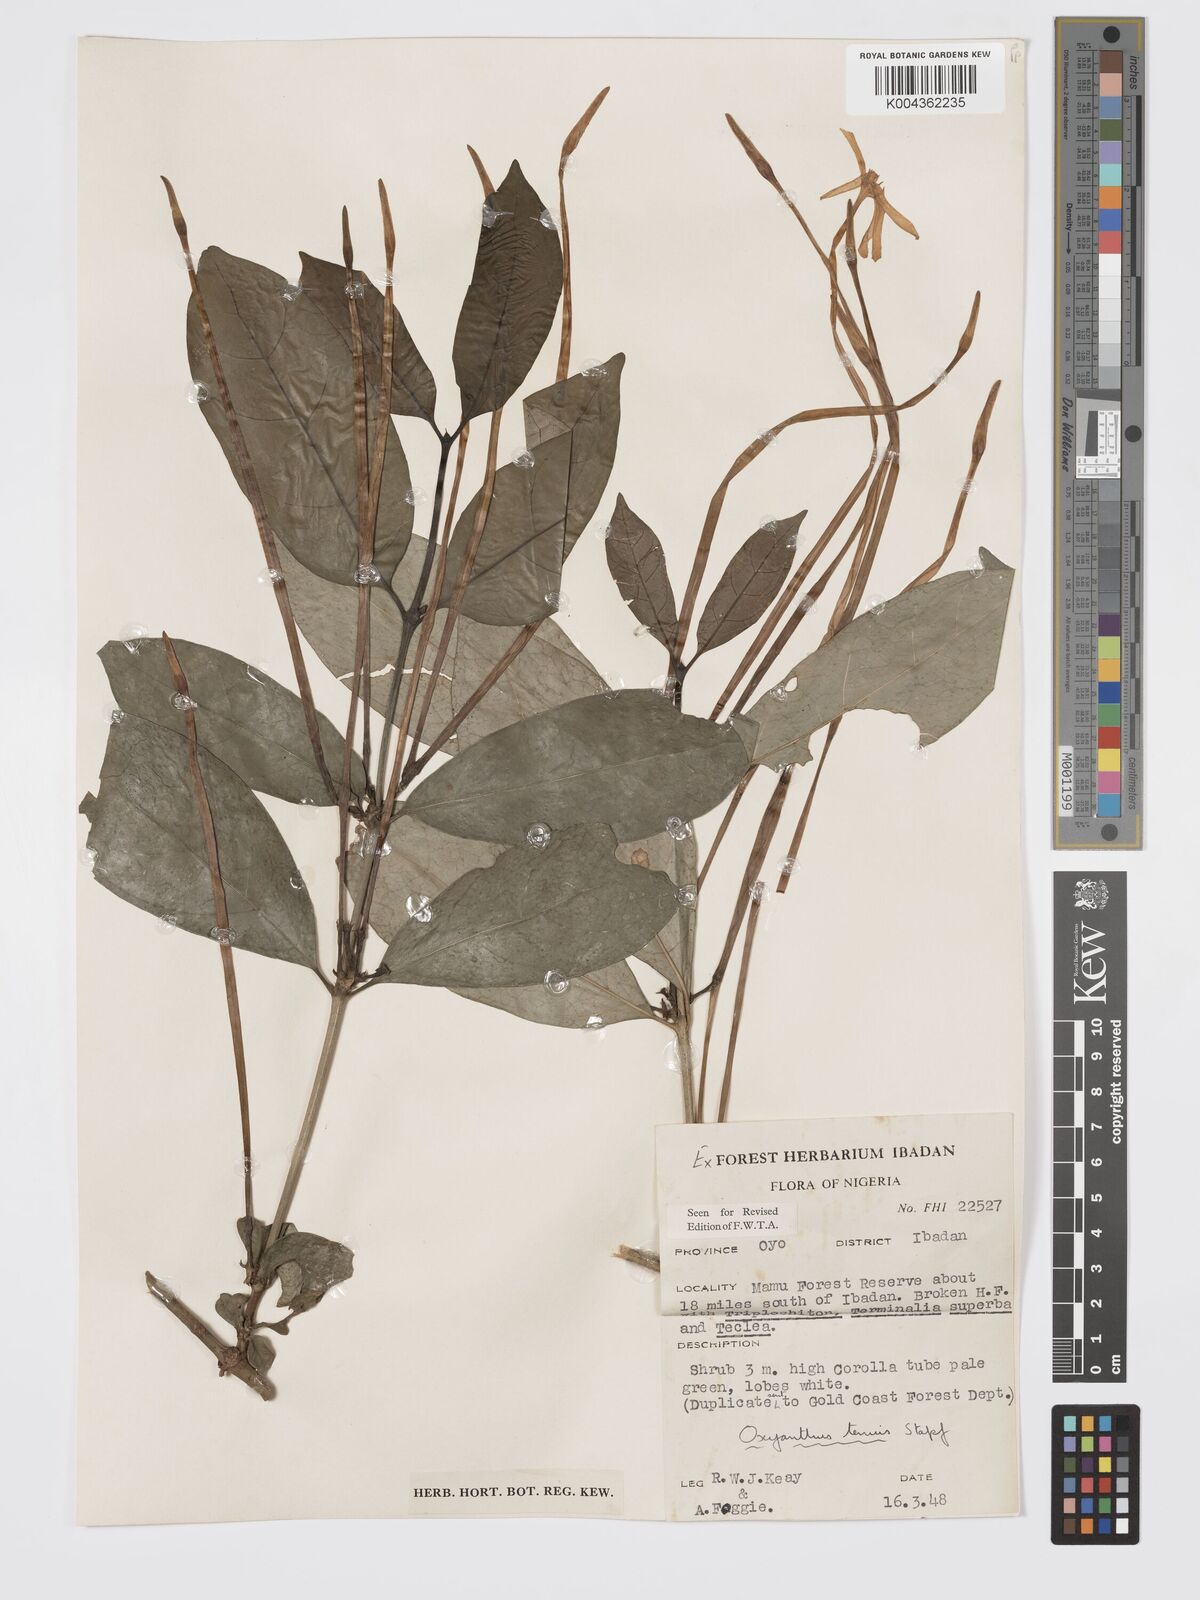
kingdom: Plantae
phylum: Tracheophyta
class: Magnoliopsida
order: Gentianales
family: Rubiaceae
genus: Oxyanthus
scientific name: Oxyanthus subpunctatus
